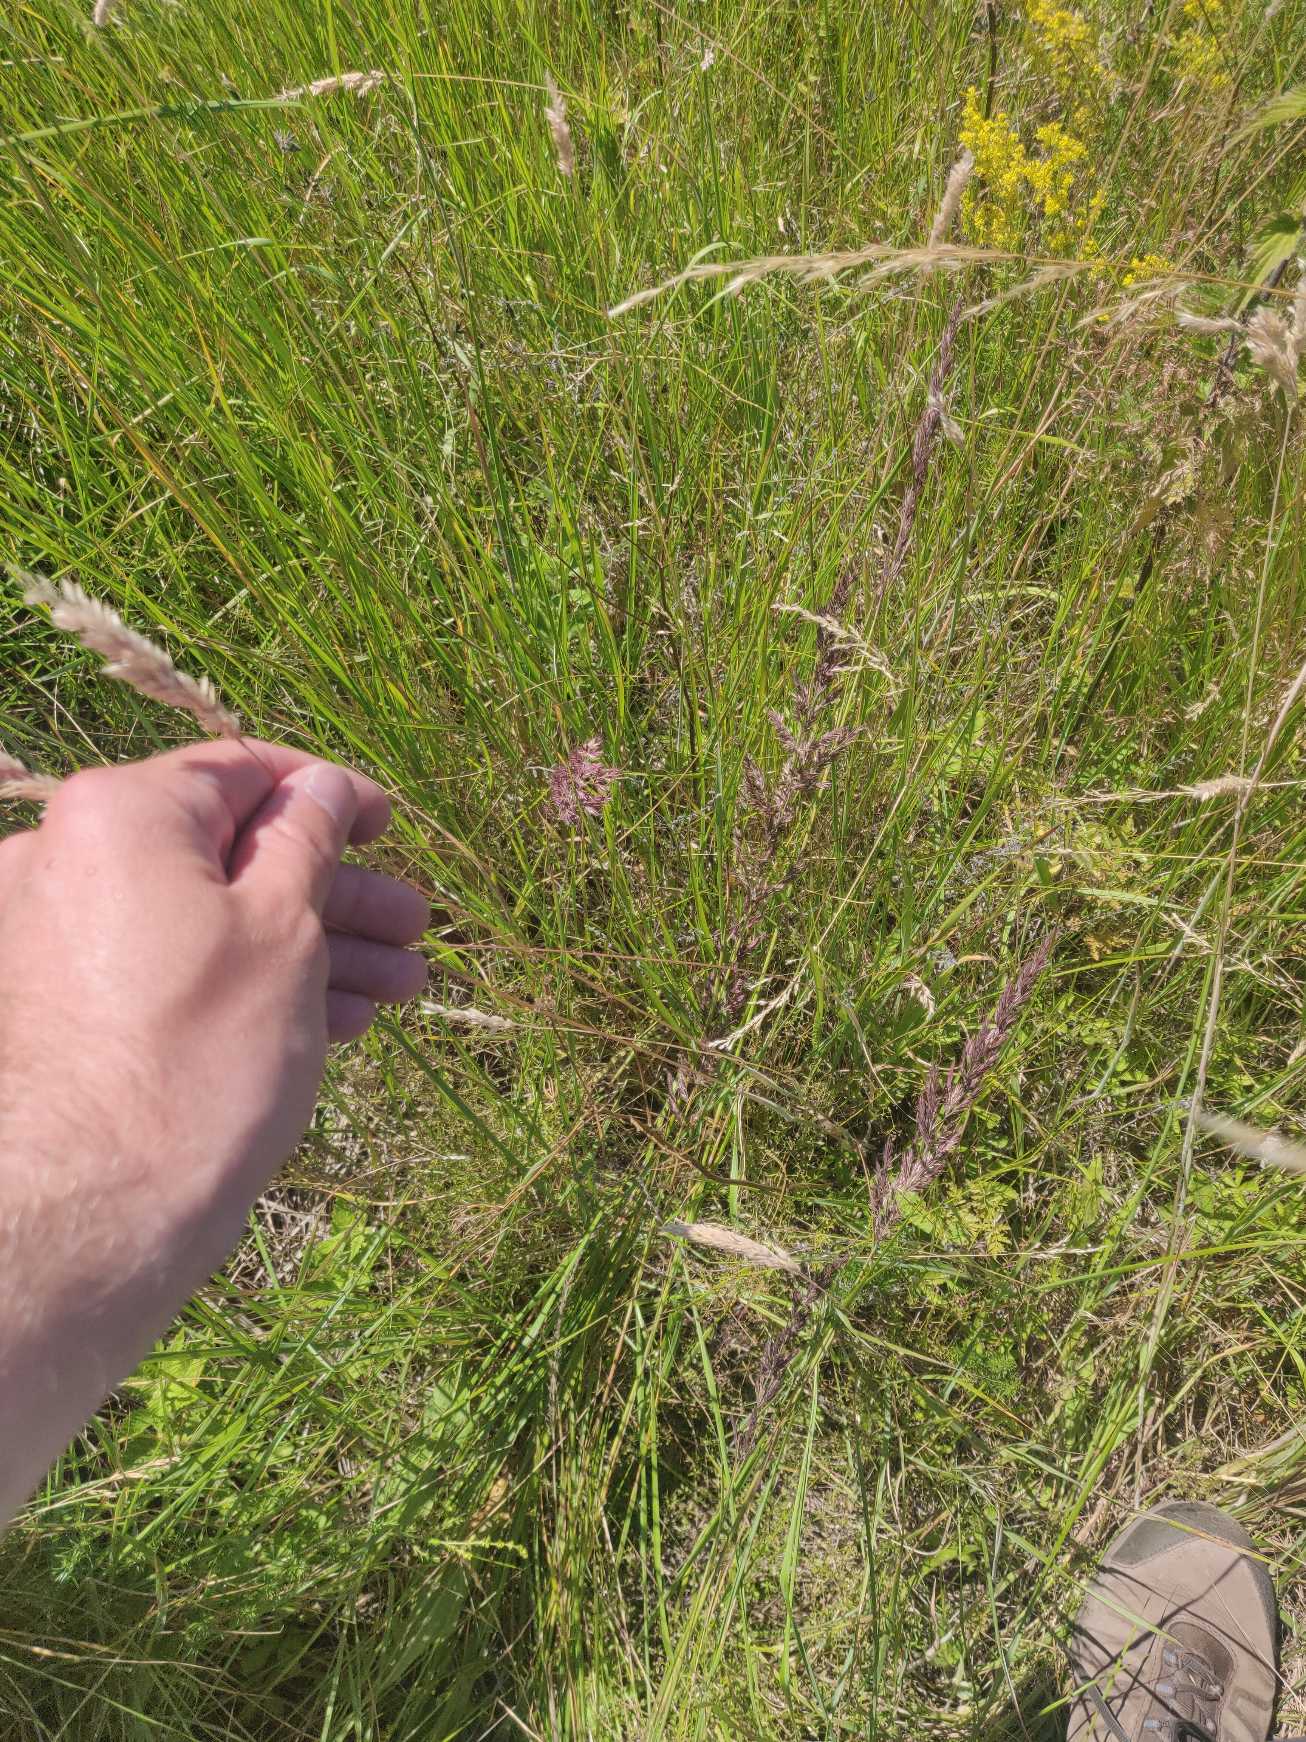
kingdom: Plantae
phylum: Tracheophyta
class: Liliopsida
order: Poales
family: Poaceae
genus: Holcus
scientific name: Holcus lanatus
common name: Fløjlsgræs
